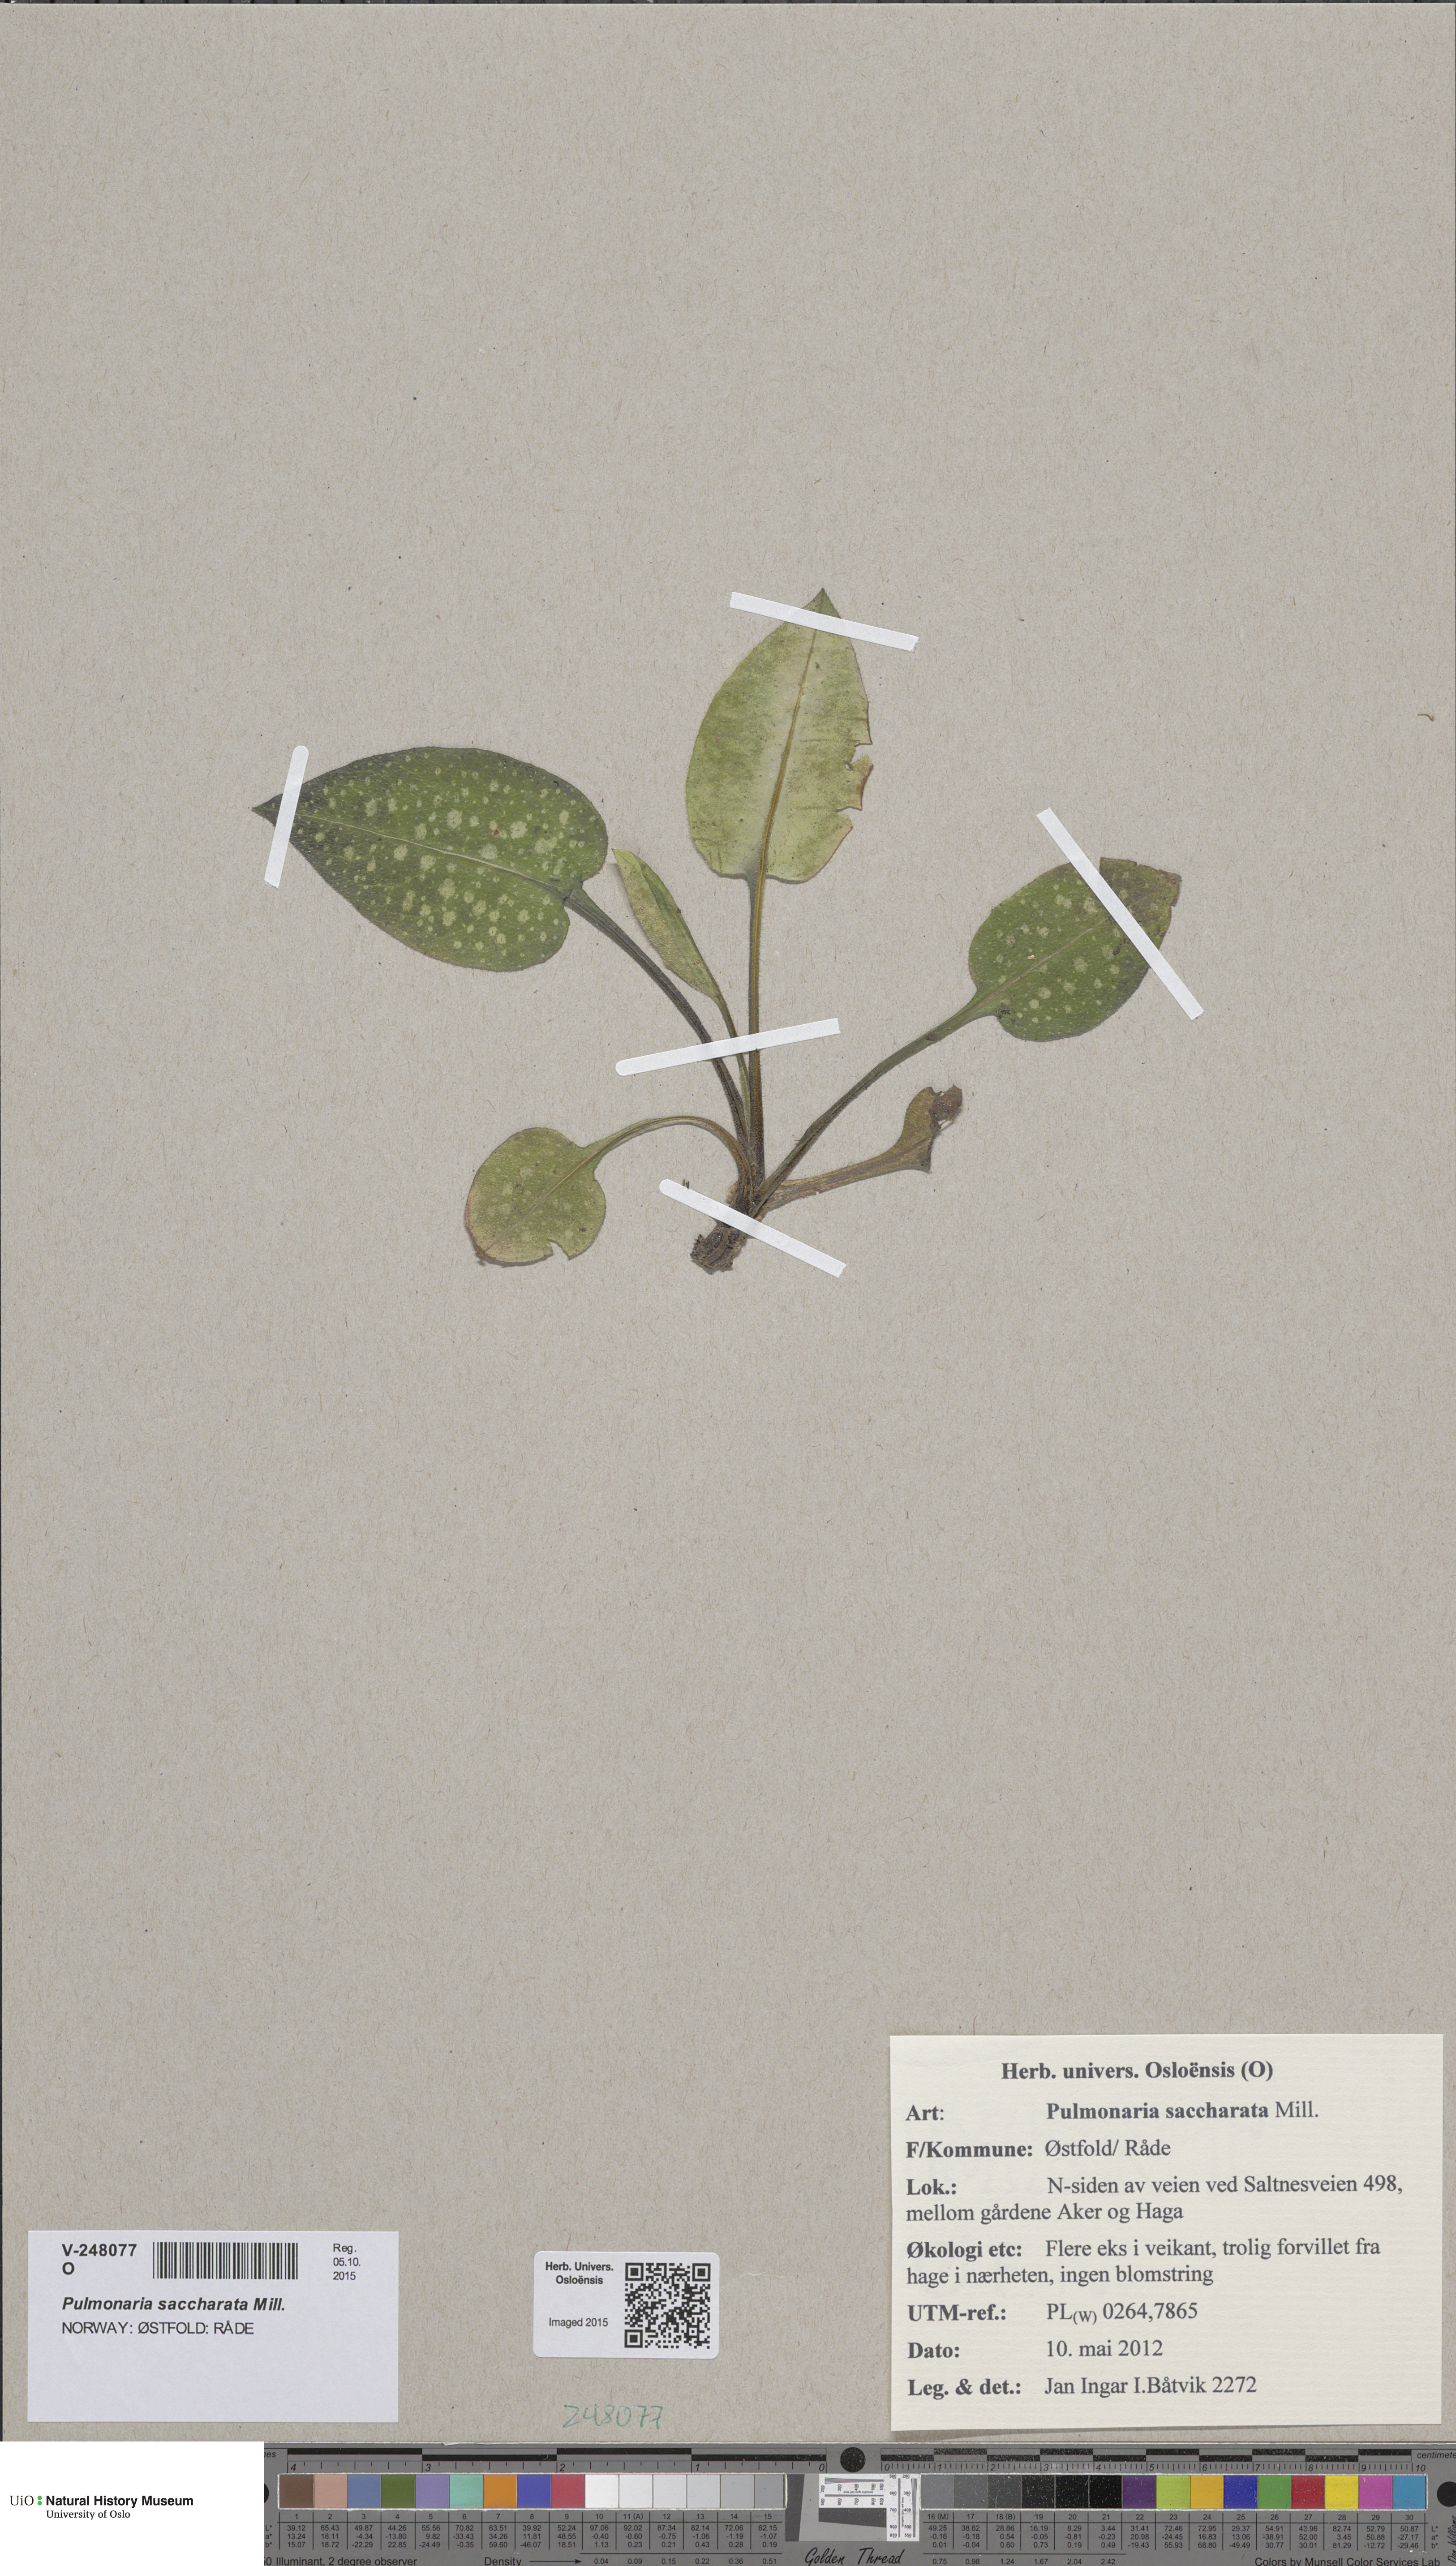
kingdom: Plantae
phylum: Tracheophyta
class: Magnoliopsida
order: Boraginales
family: Boraginaceae
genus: Pulmonaria
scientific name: Pulmonaria officinalis
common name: Lungwort
